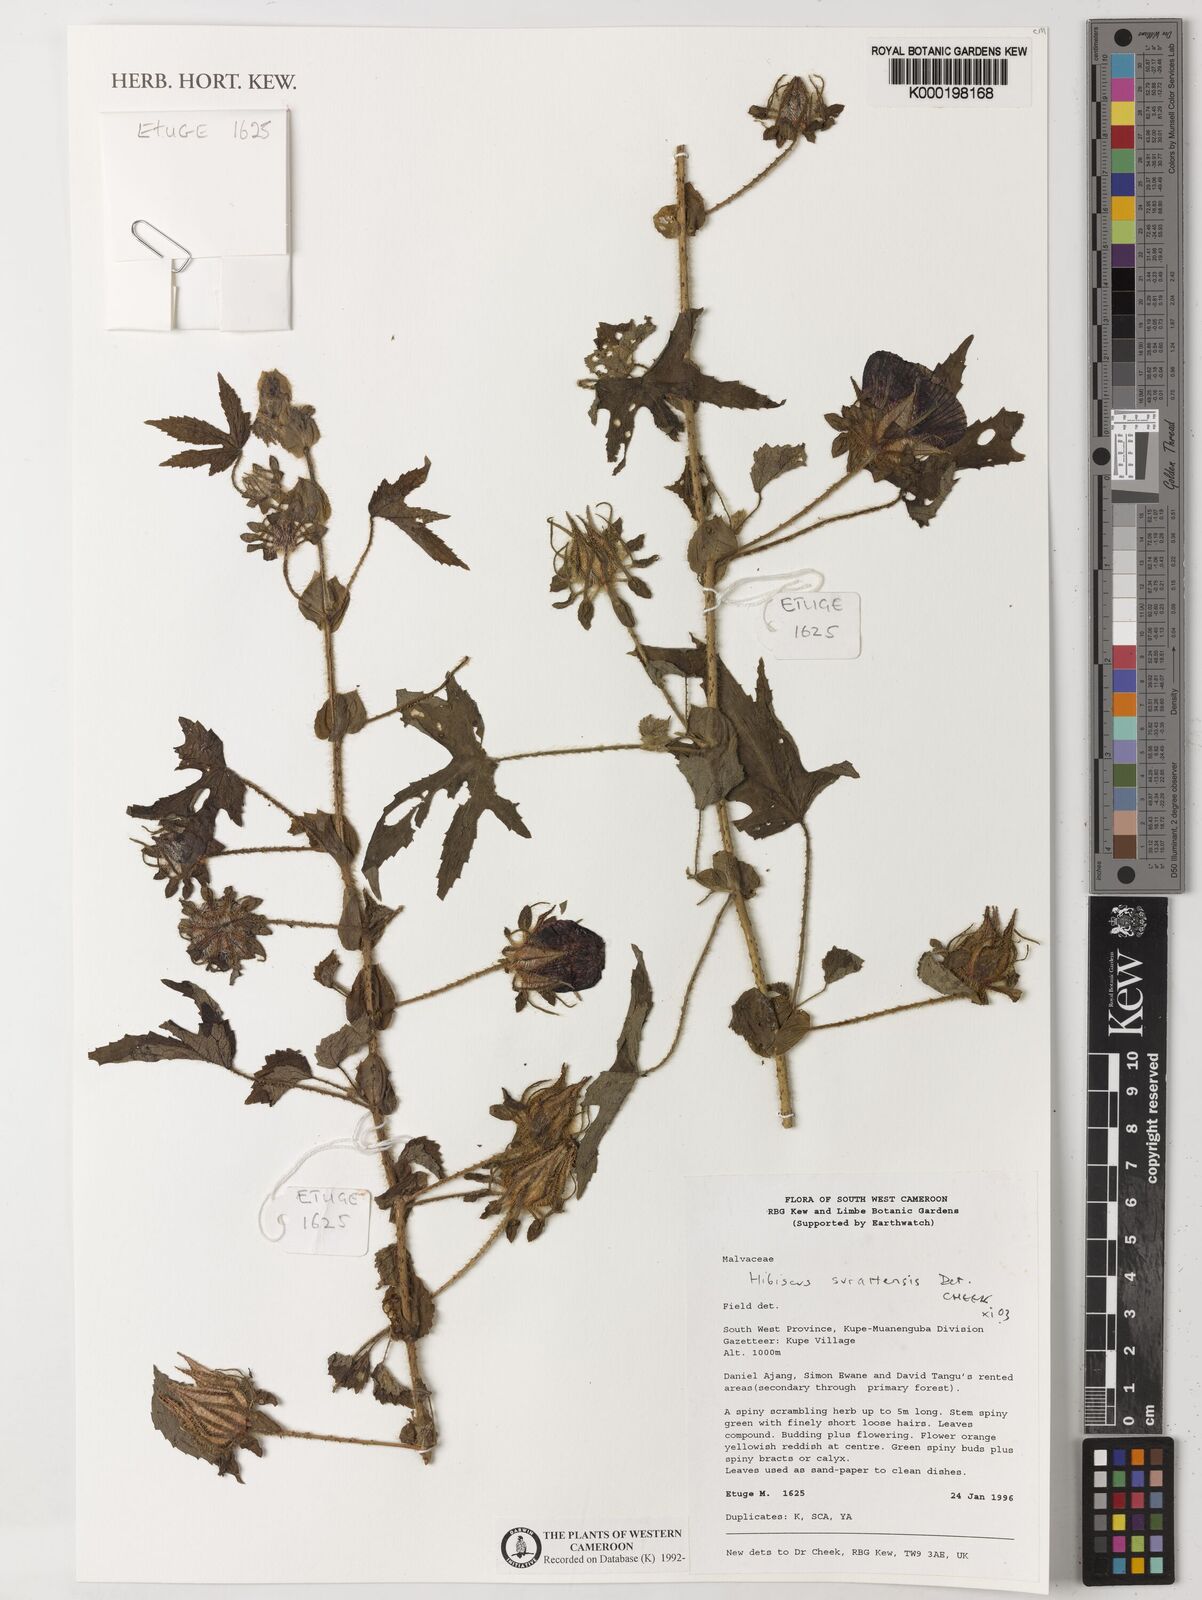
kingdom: Plantae
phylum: Tracheophyta
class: Magnoliopsida
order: Malvales
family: Malvaceae
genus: Hibiscus
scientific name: Hibiscus surattensis
